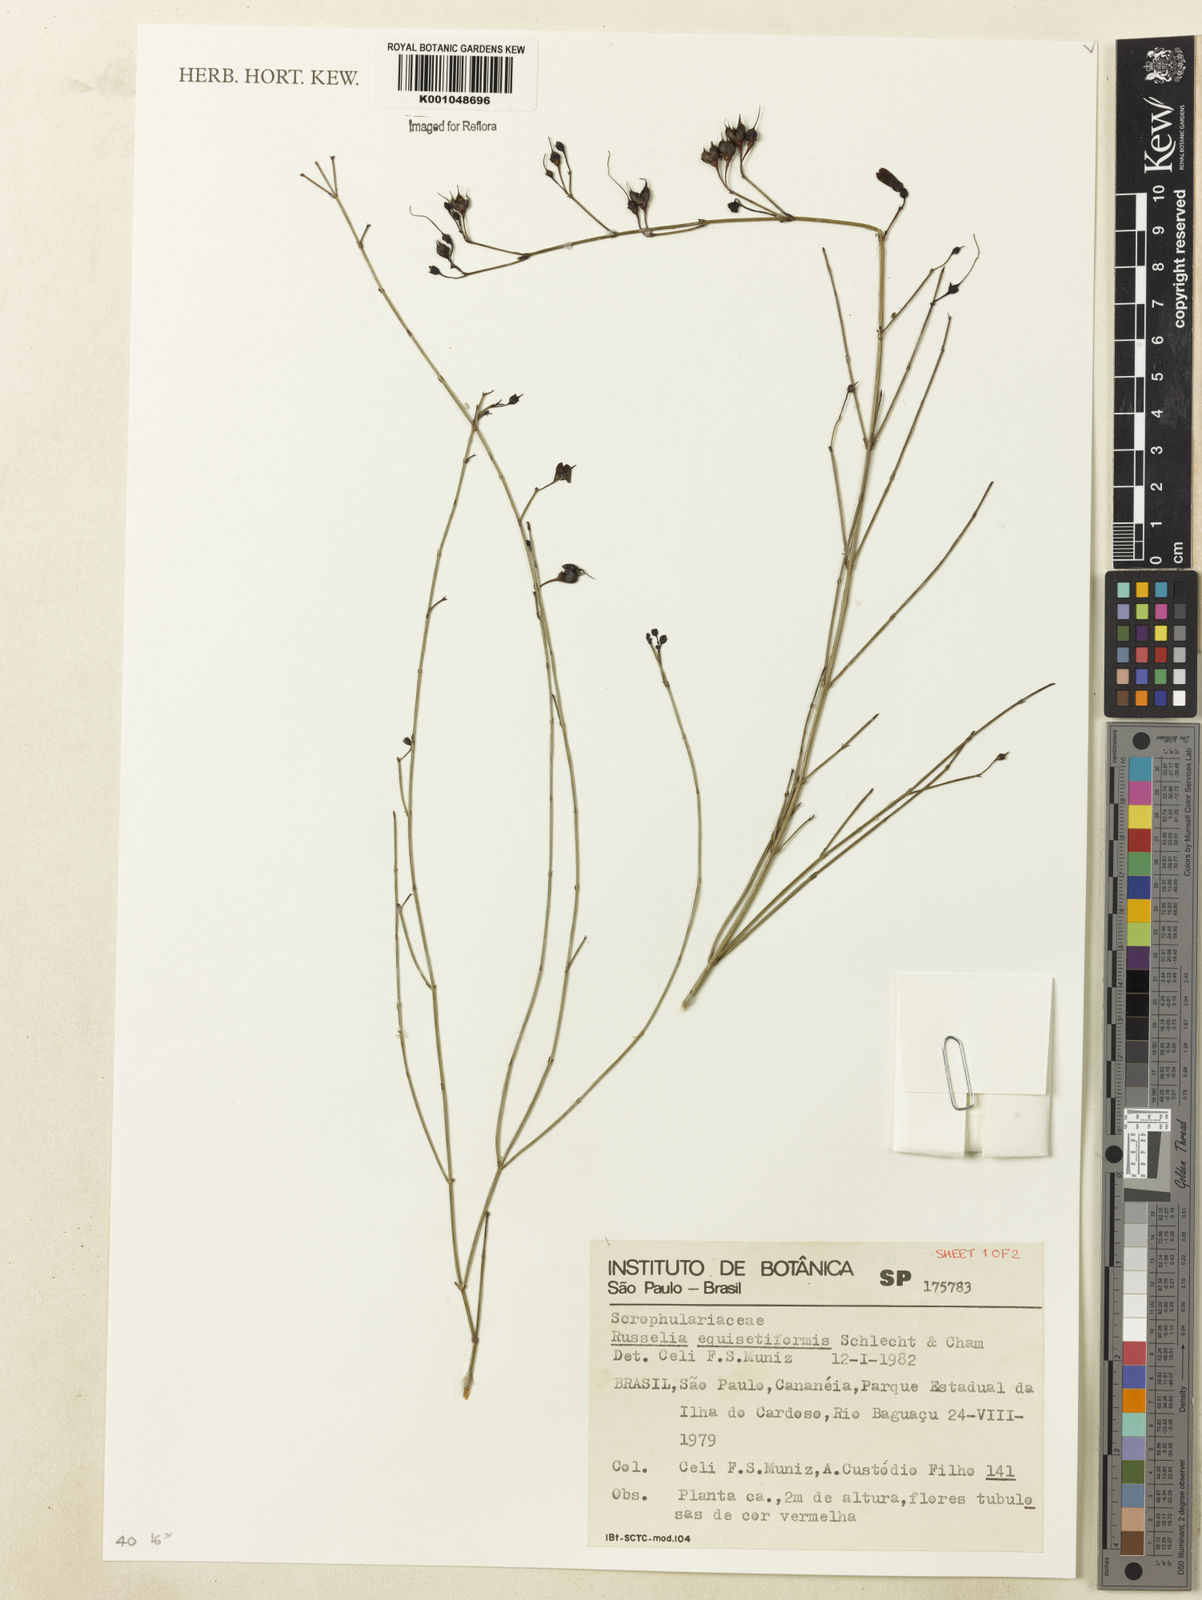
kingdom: Plantae
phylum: Tracheophyta
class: Magnoliopsida
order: Lamiales
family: Plantaginaceae
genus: Russelia
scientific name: Russelia equisetiformis
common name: Fountainbush
